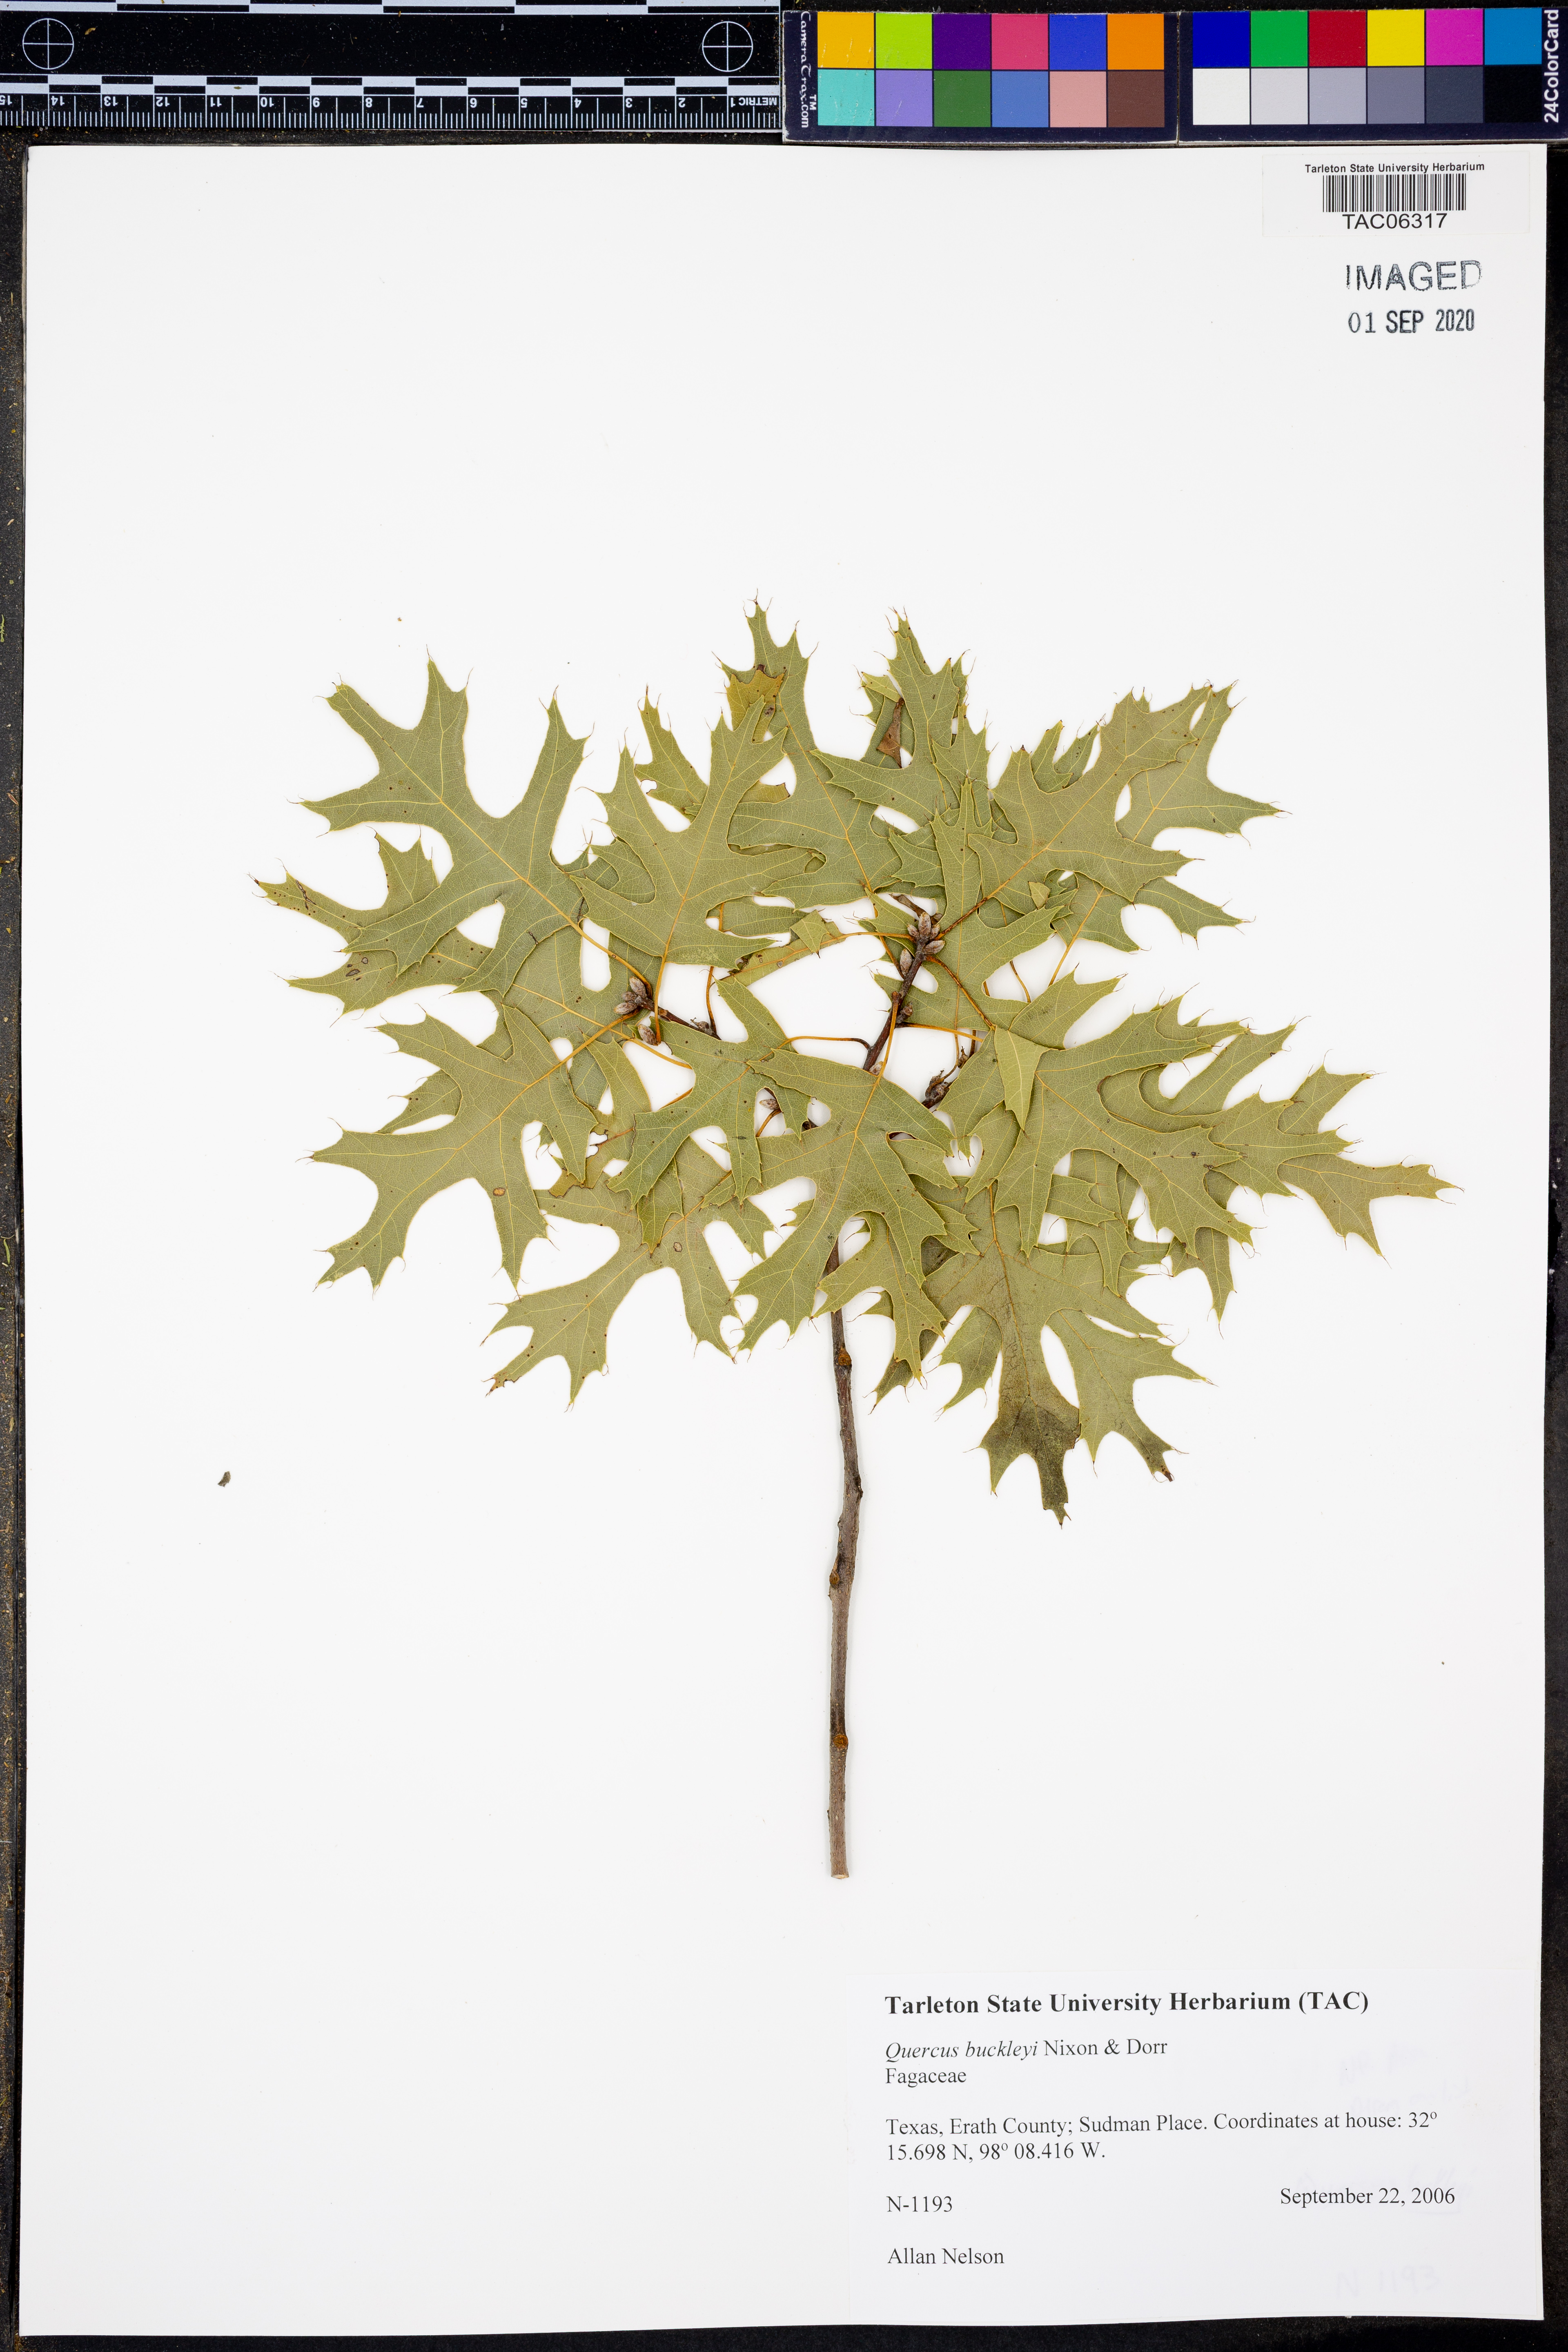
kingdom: Plantae
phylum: Tracheophyta
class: Magnoliopsida
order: Fagales
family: Fagaceae
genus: Quercus
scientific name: Quercus buckleyi
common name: Buckley oak
